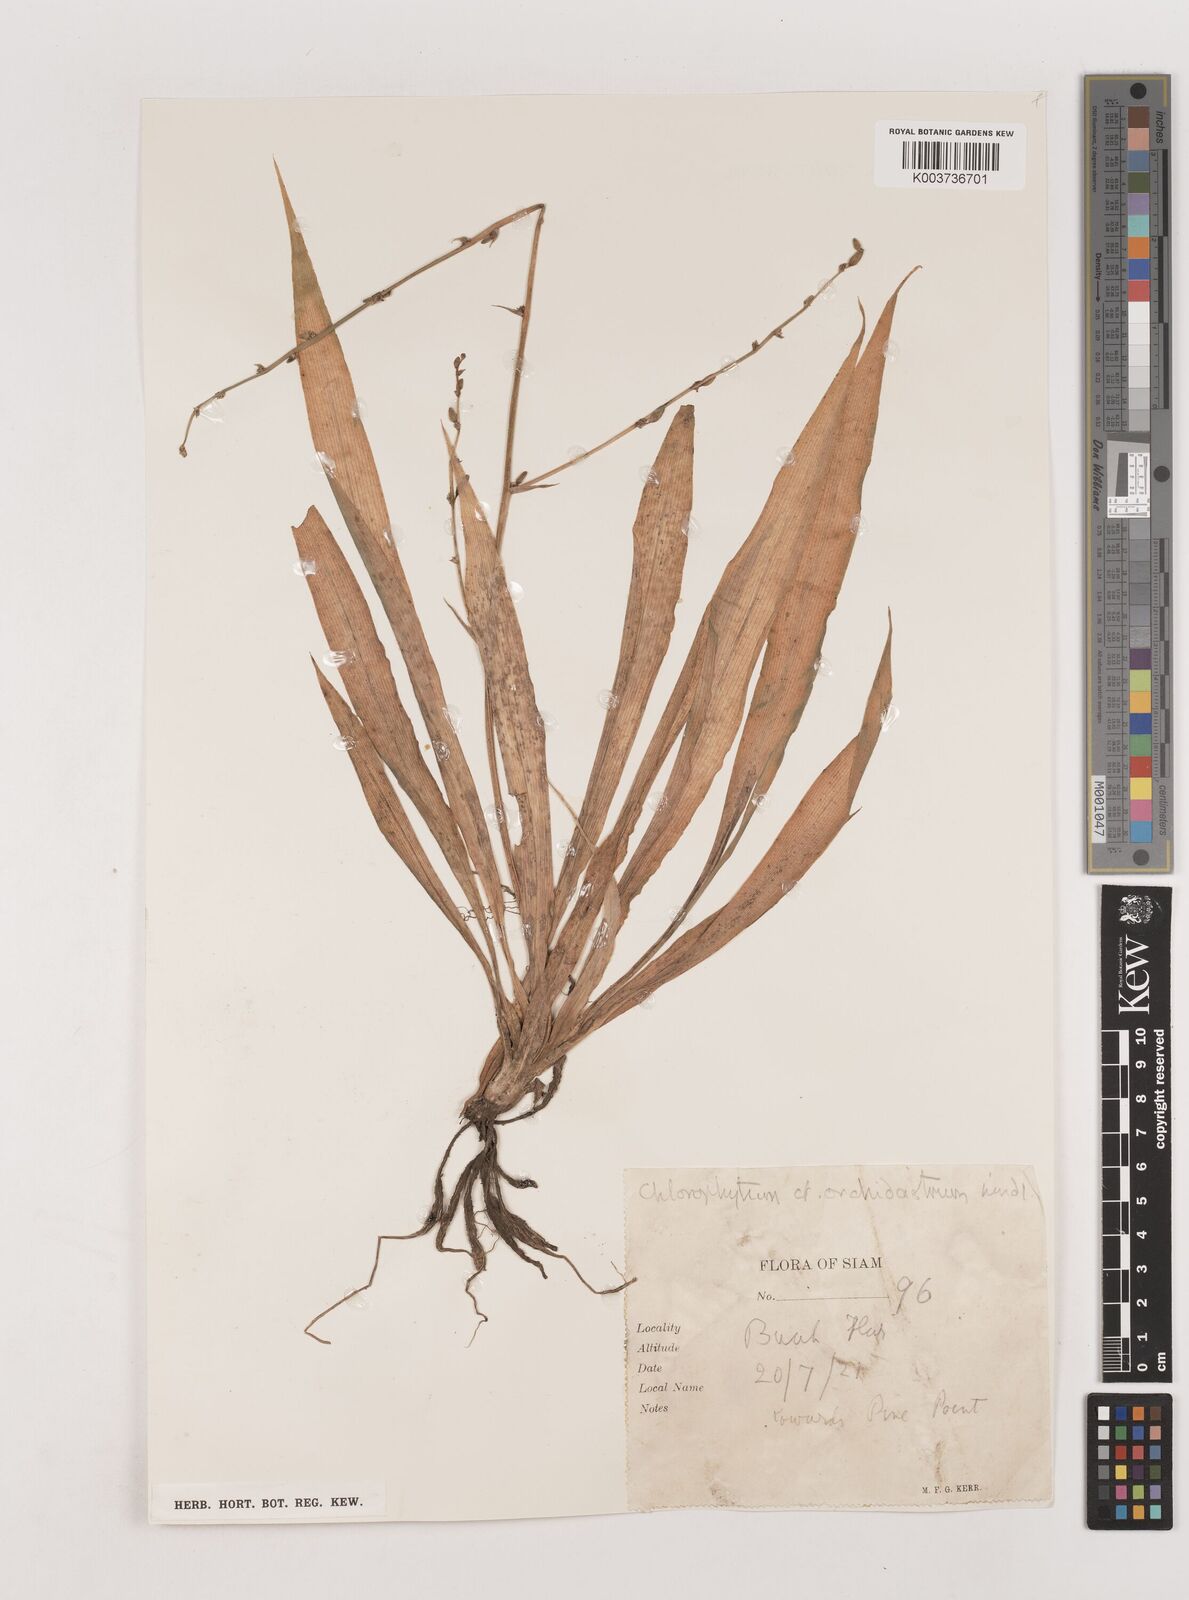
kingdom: Plantae
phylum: Tracheophyta
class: Liliopsida
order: Asparagales
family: Asparagaceae
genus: Chlorophytum
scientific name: Chlorophytum orchidastrum
